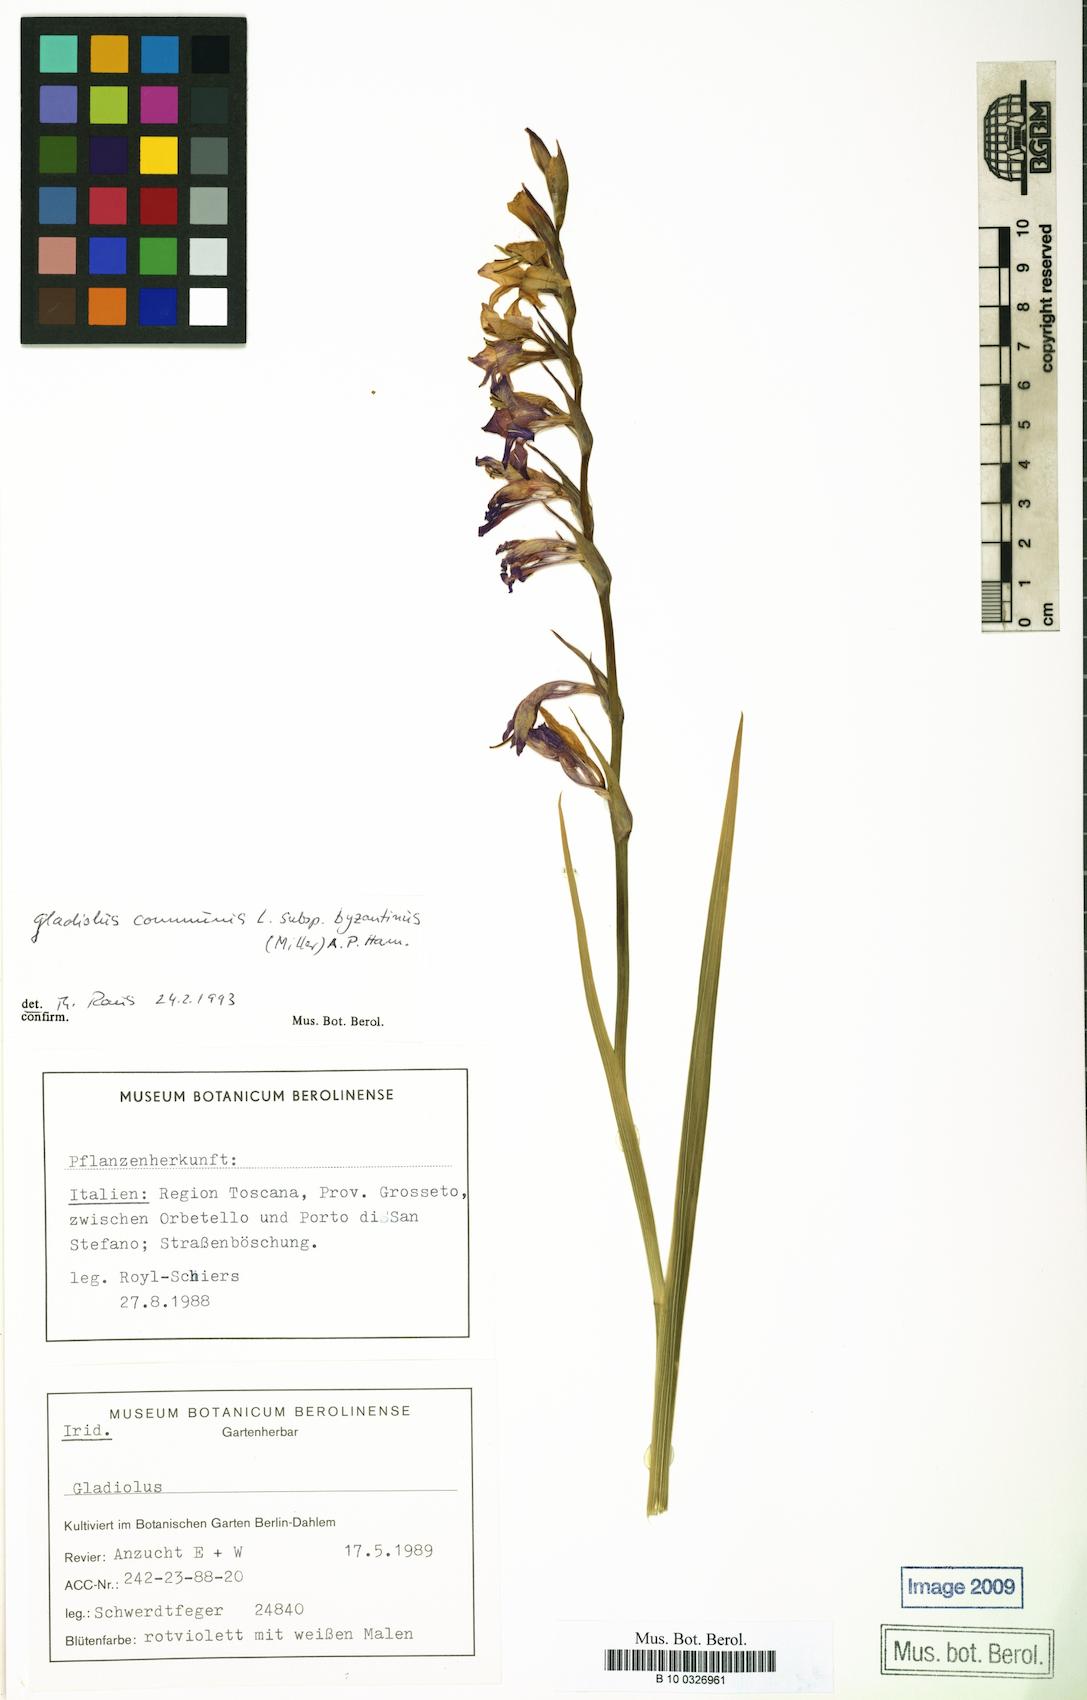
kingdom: Plantae
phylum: Tracheophyta
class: Liliopsida
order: Asparagales
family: Iridaceae
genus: Gladiolus
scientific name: Gladiolus byzantinus
